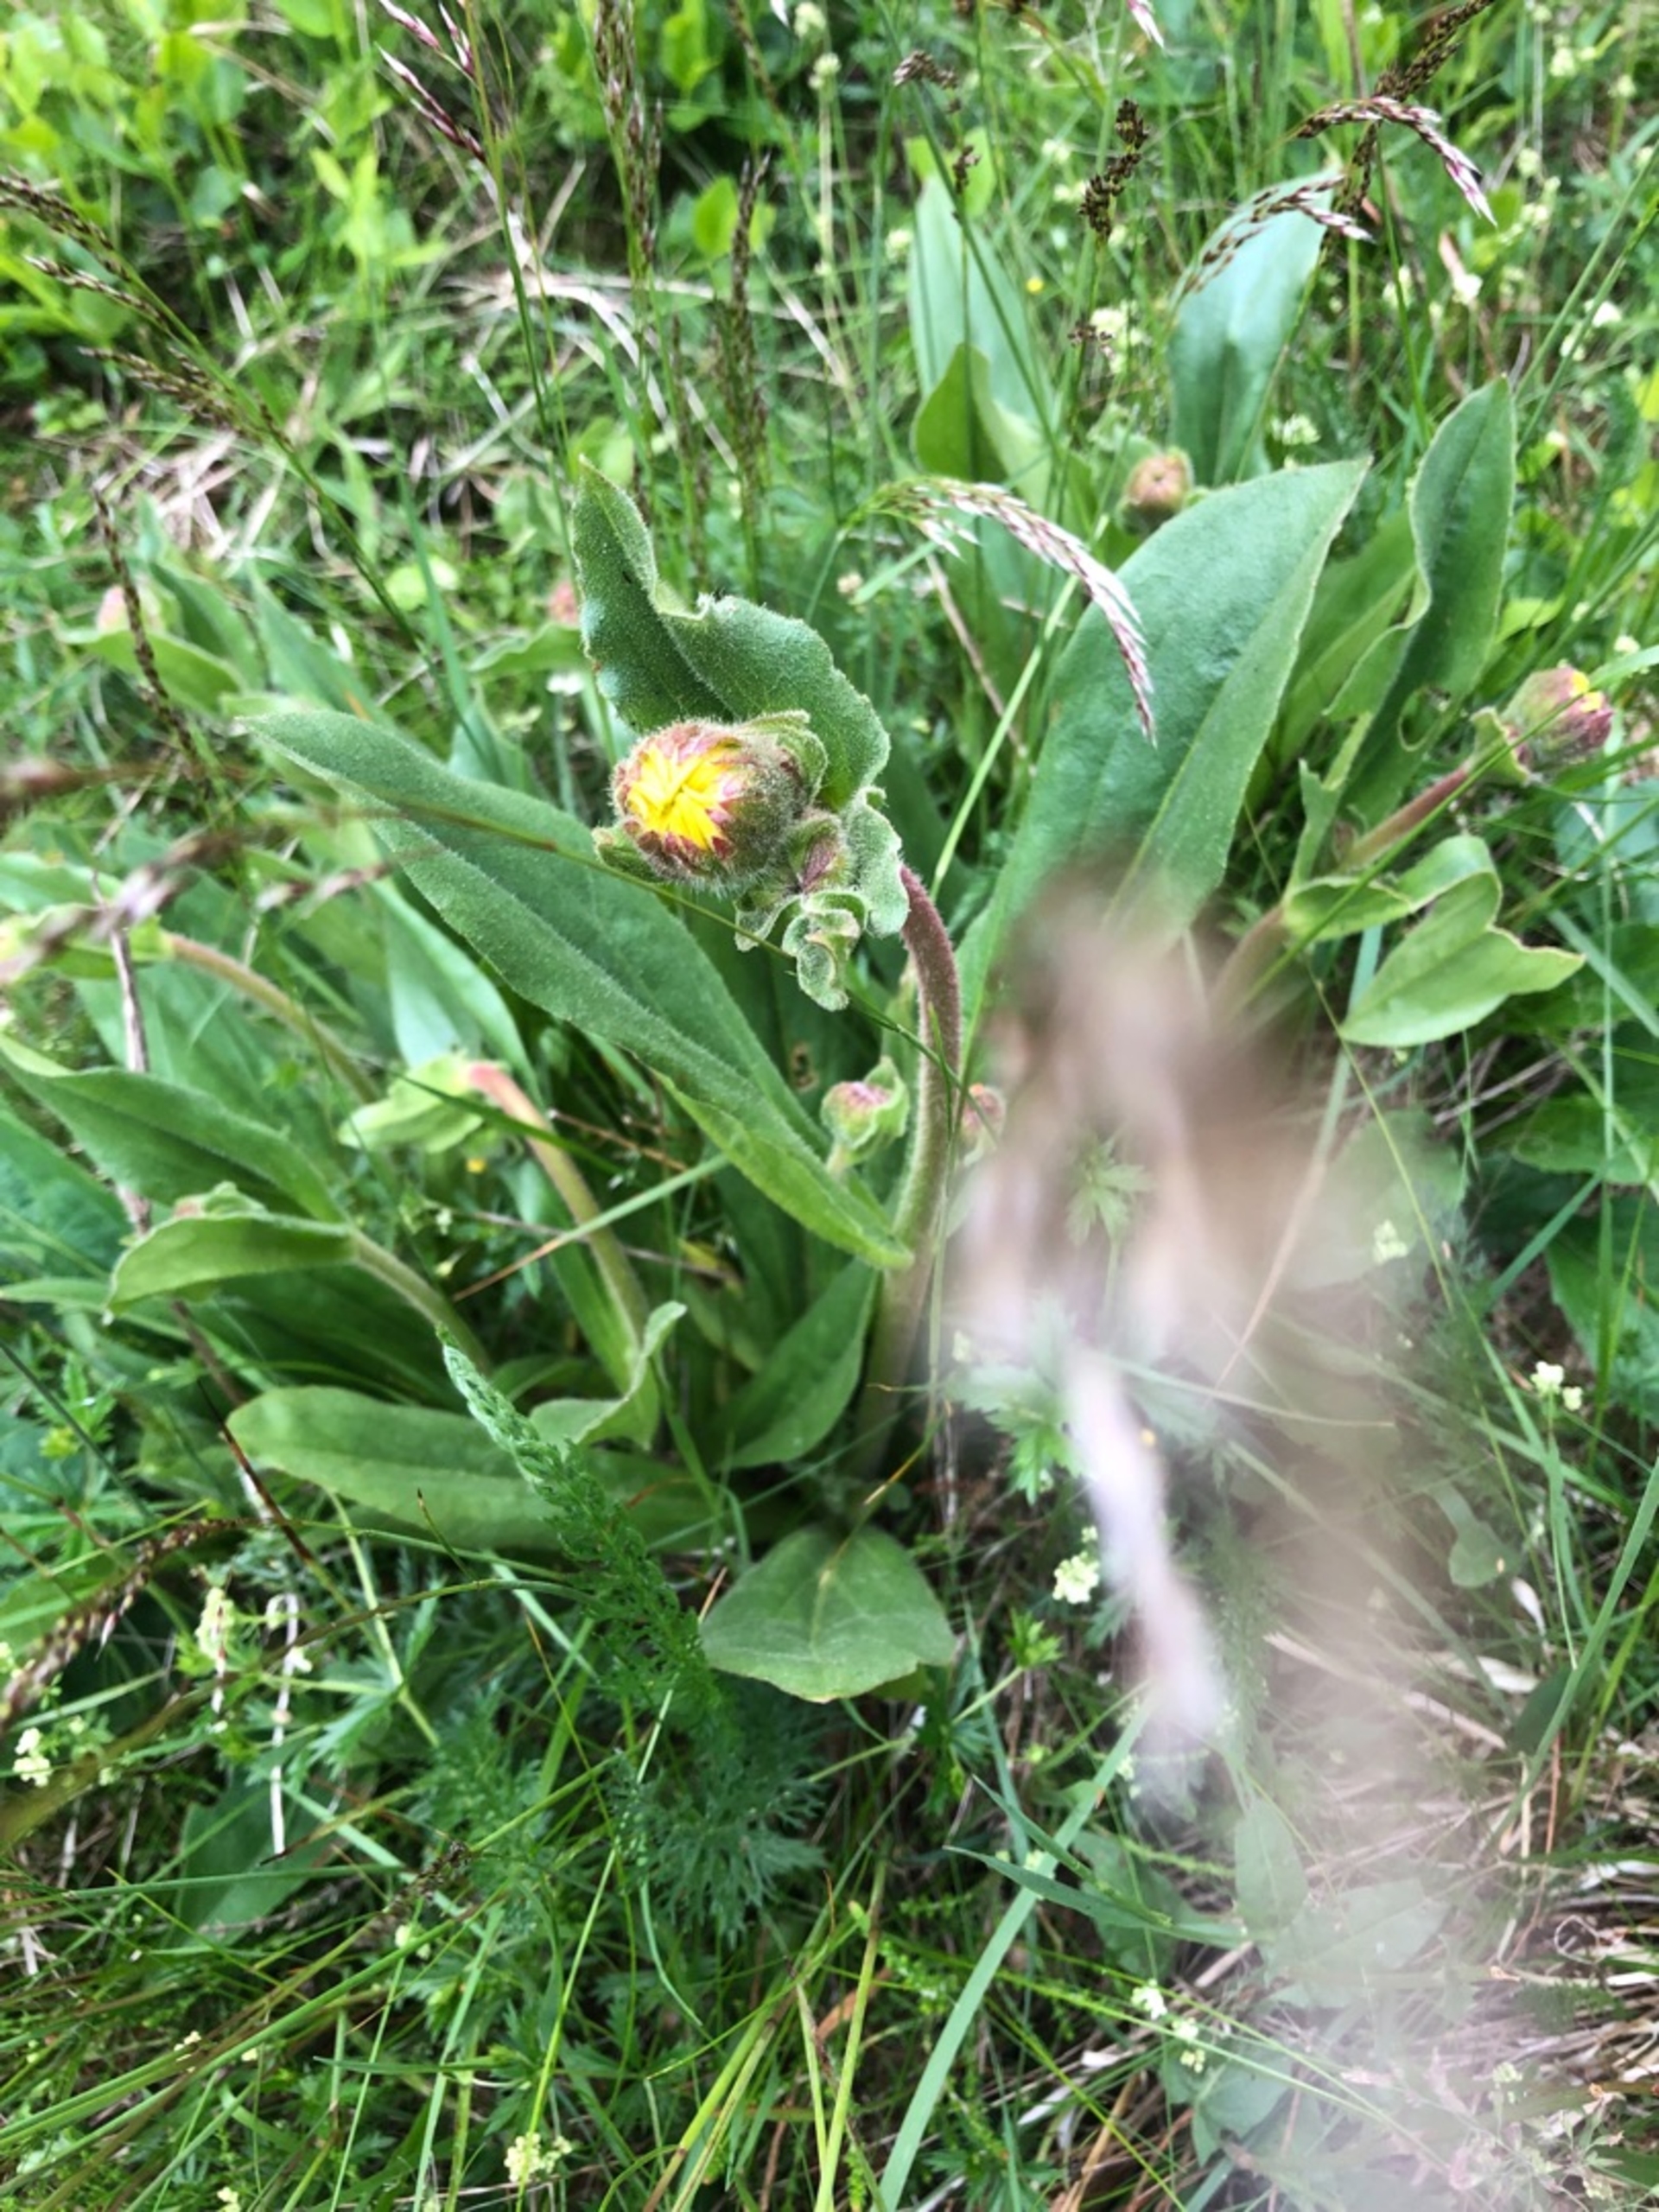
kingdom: Plantae
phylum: Tracheophyta
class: Magnoliopsida
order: Asterales
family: Asteraceae
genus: Arnica
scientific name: Arnica montana
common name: Guldblomme
